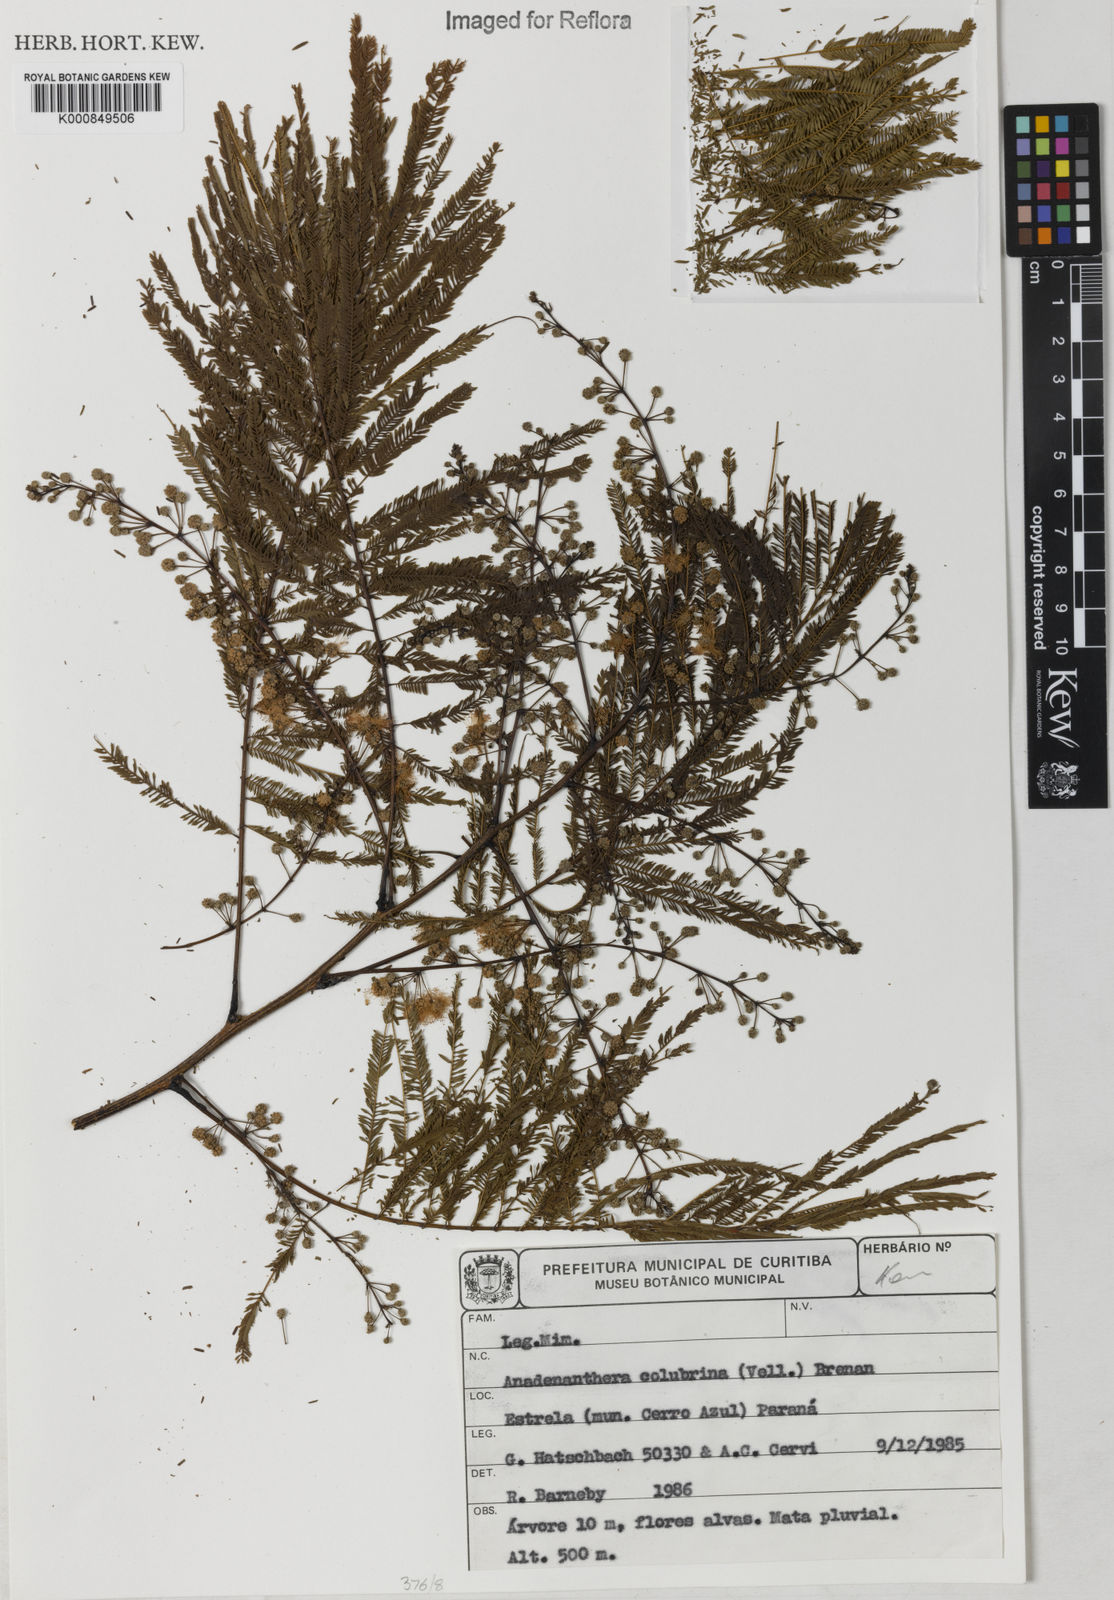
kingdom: Plantae
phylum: Tracheophyta
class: Magnoliopsida
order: Fabales
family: Fabaceae
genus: Anadenanthera
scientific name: Anadenanthera colubrina
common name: Curupay
